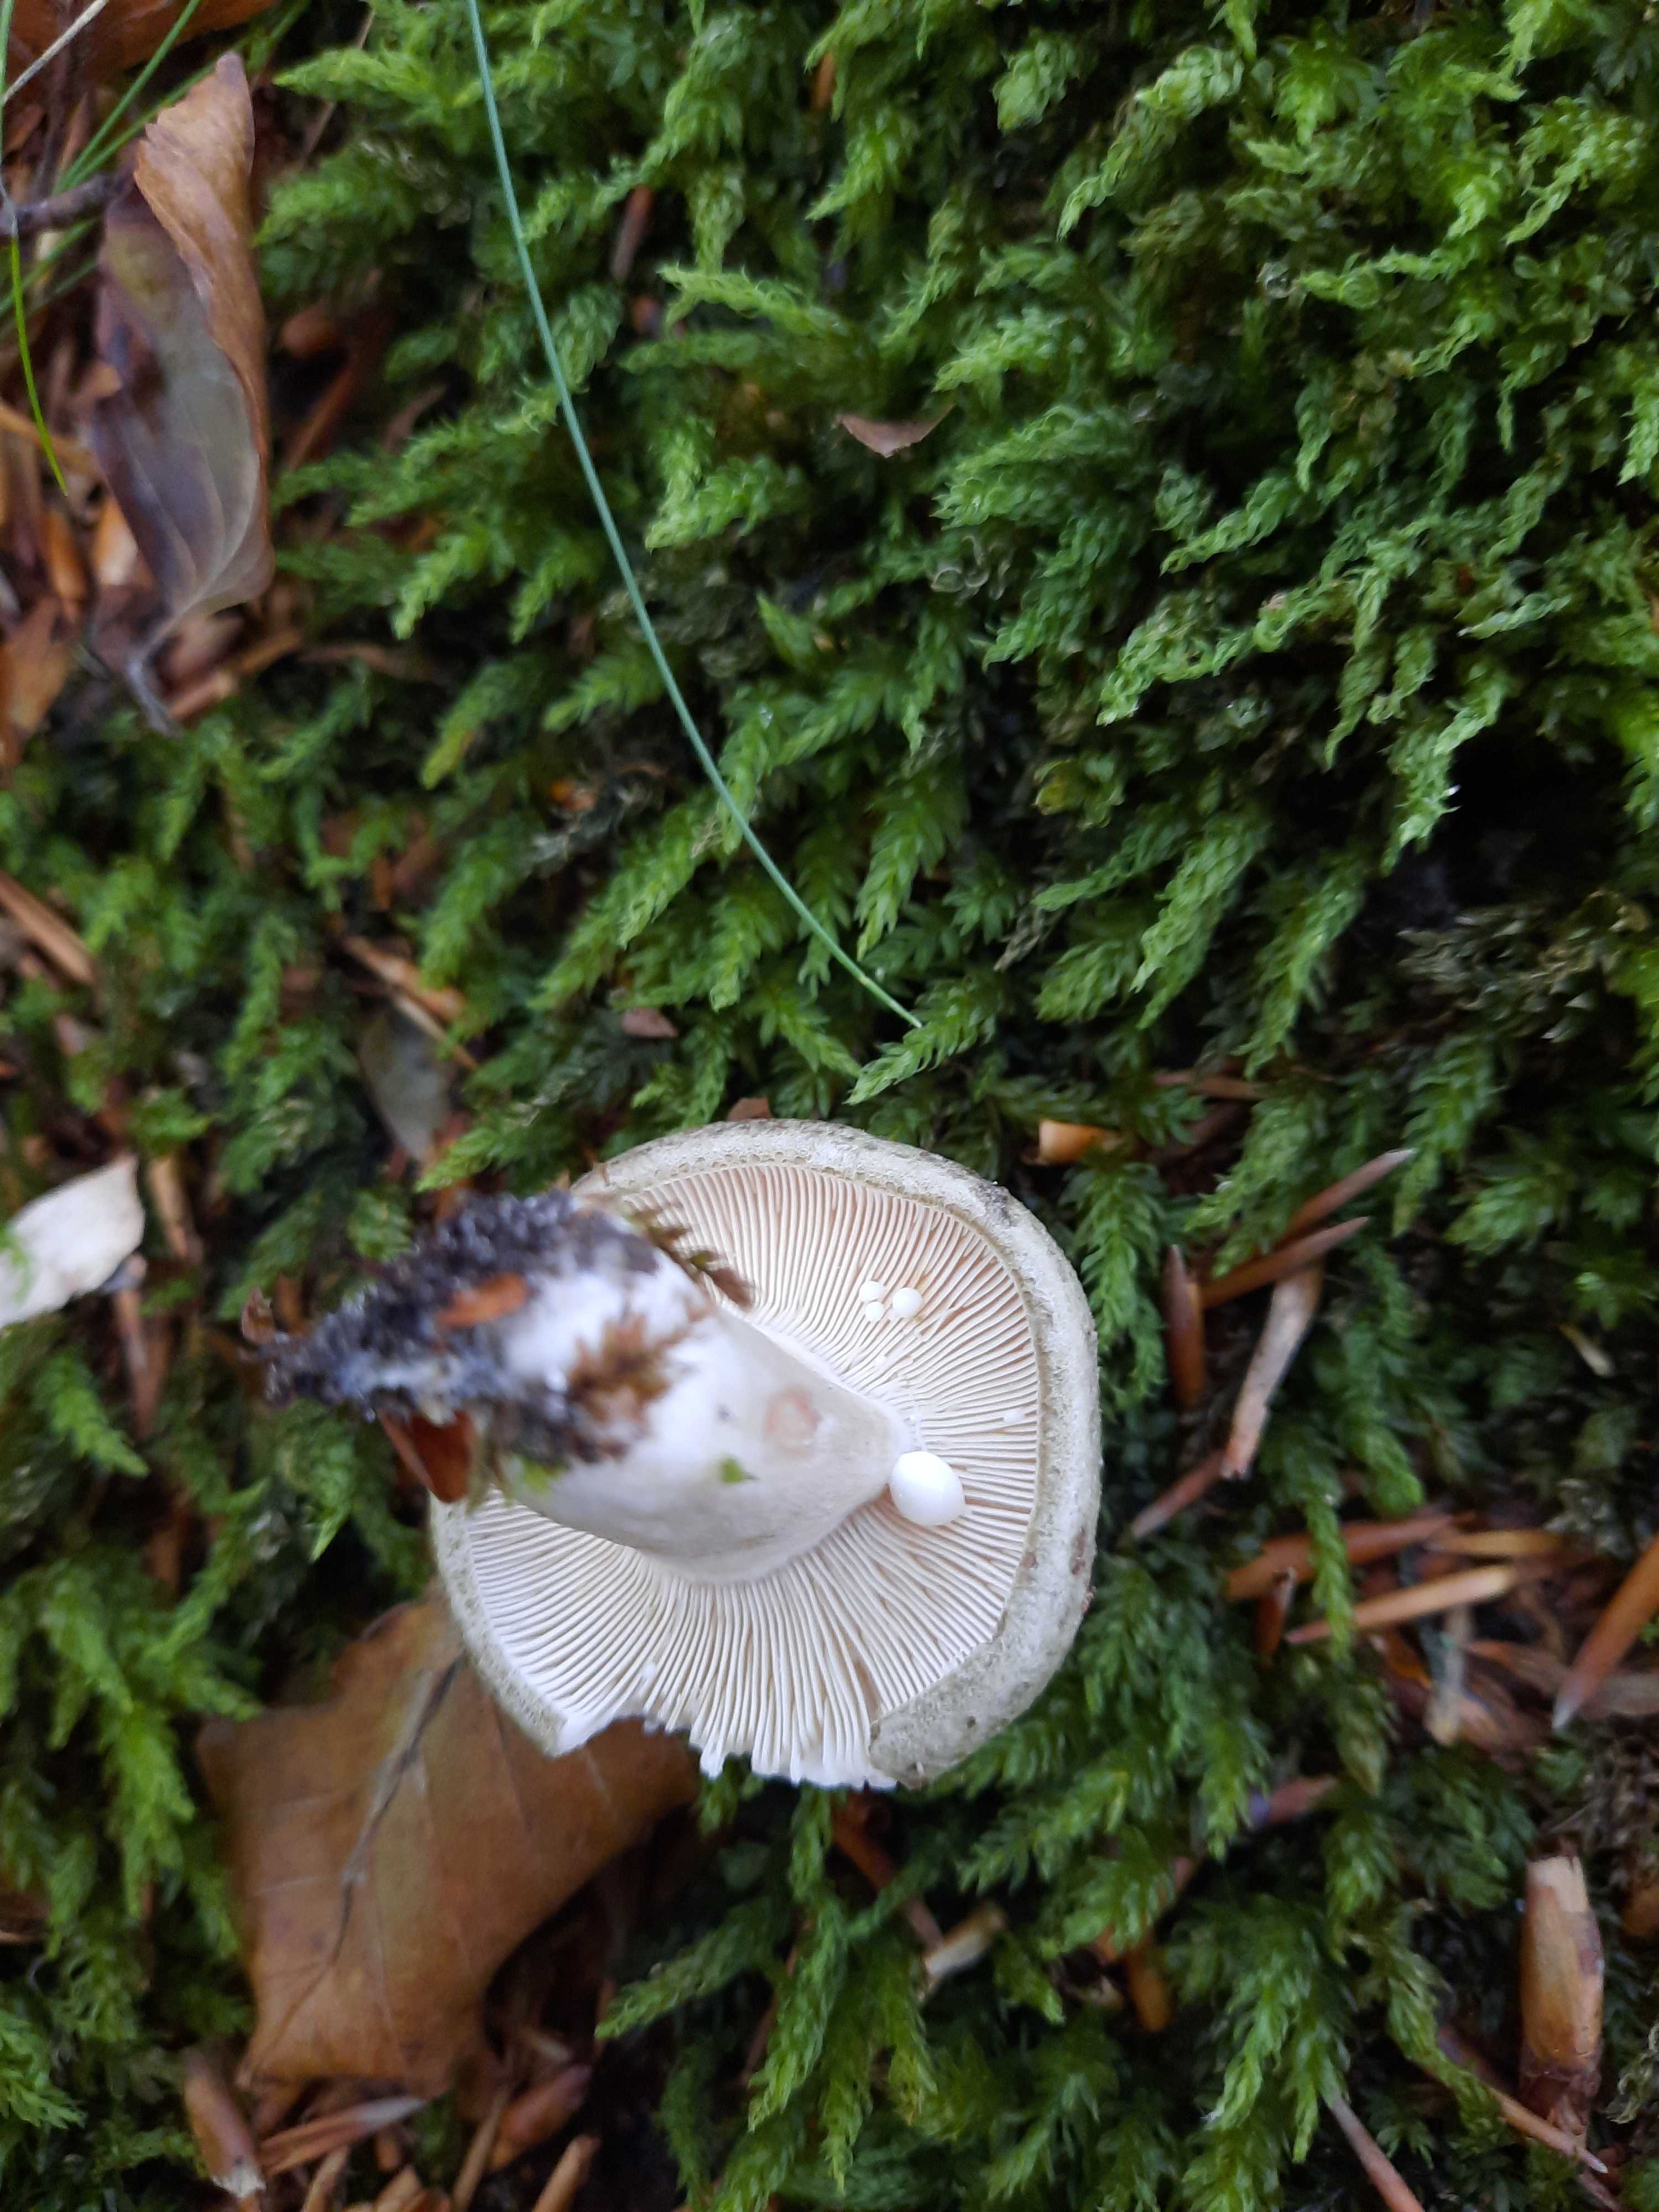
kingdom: Fungi
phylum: Basidiomycota
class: Agaricomycetes
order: Russulales
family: Russulaceae
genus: Lactarius
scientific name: Lactarius blennius
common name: dråbeplettet mælkehat
